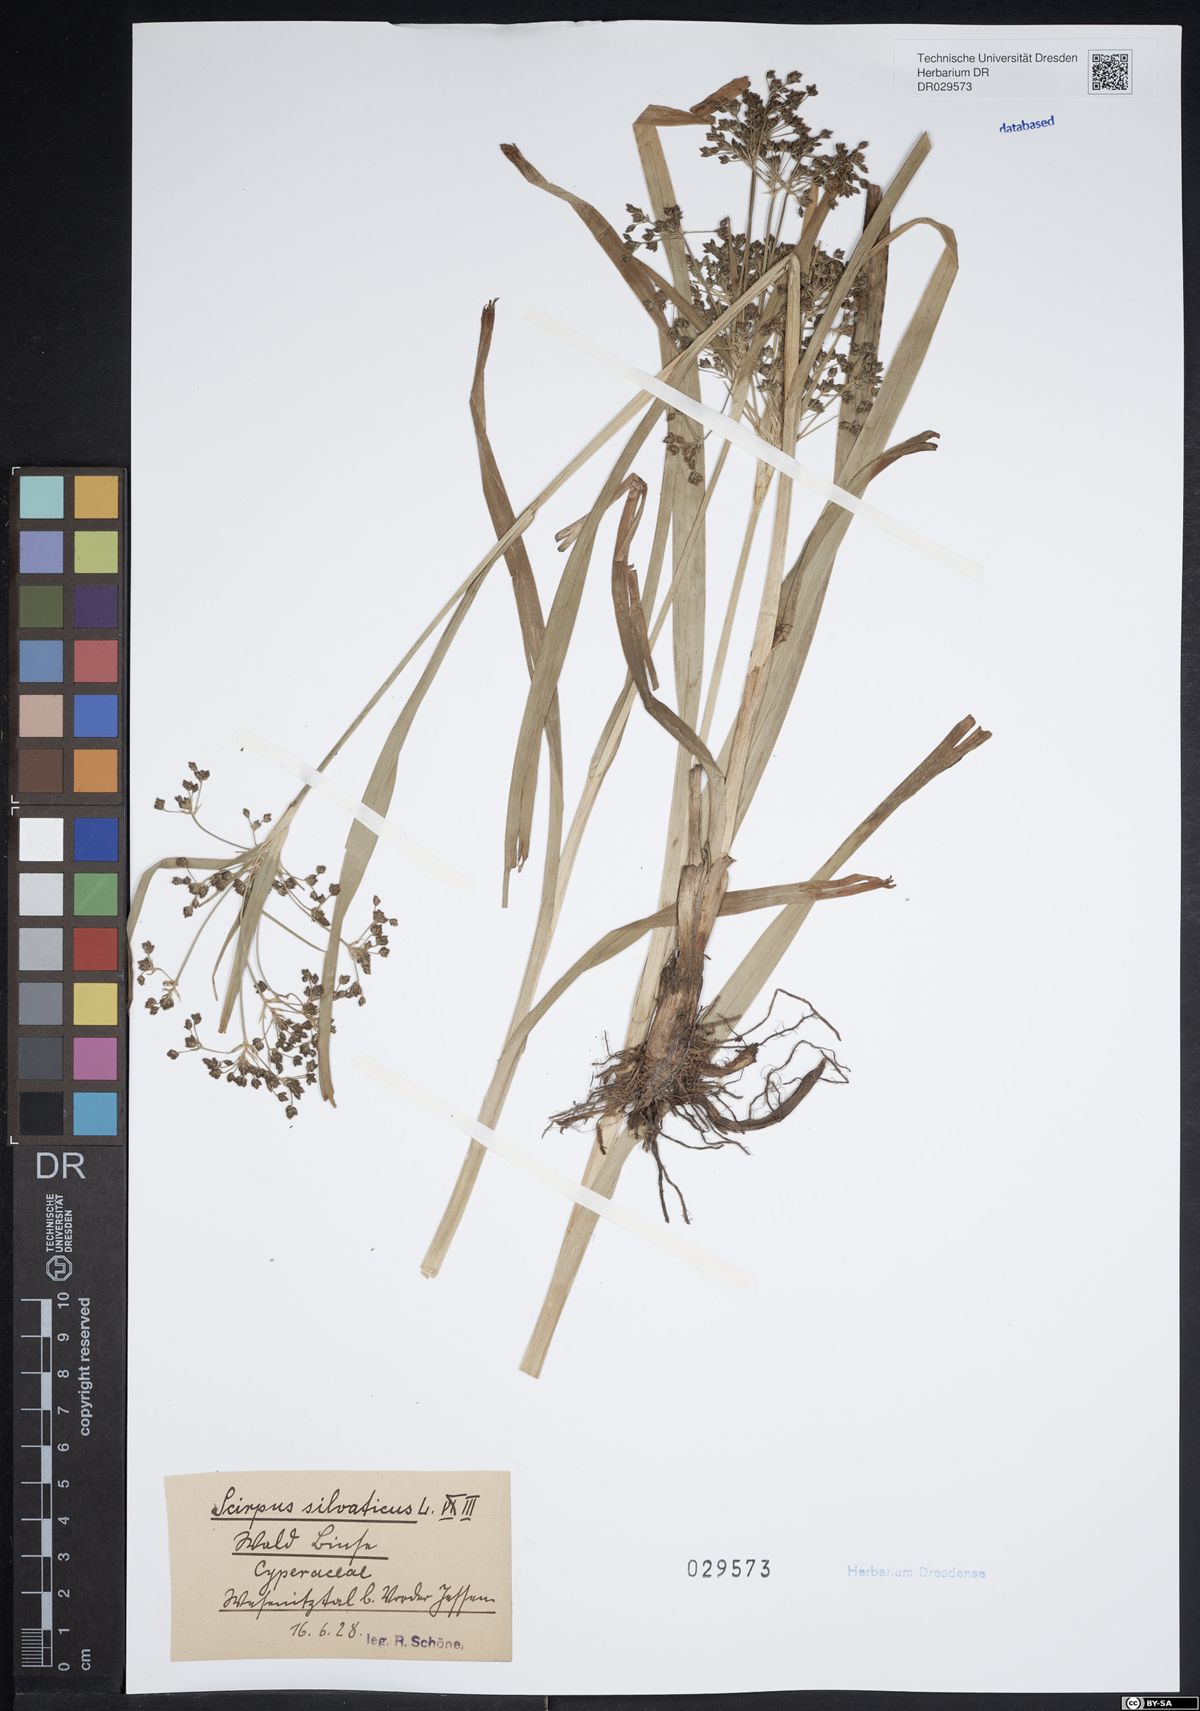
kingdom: Plantae
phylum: Tracheophyta
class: Liliopsida
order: Poales
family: Cyperaceae
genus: Scirpus
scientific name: Scirpus sylvaticus
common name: Wood club-rush
